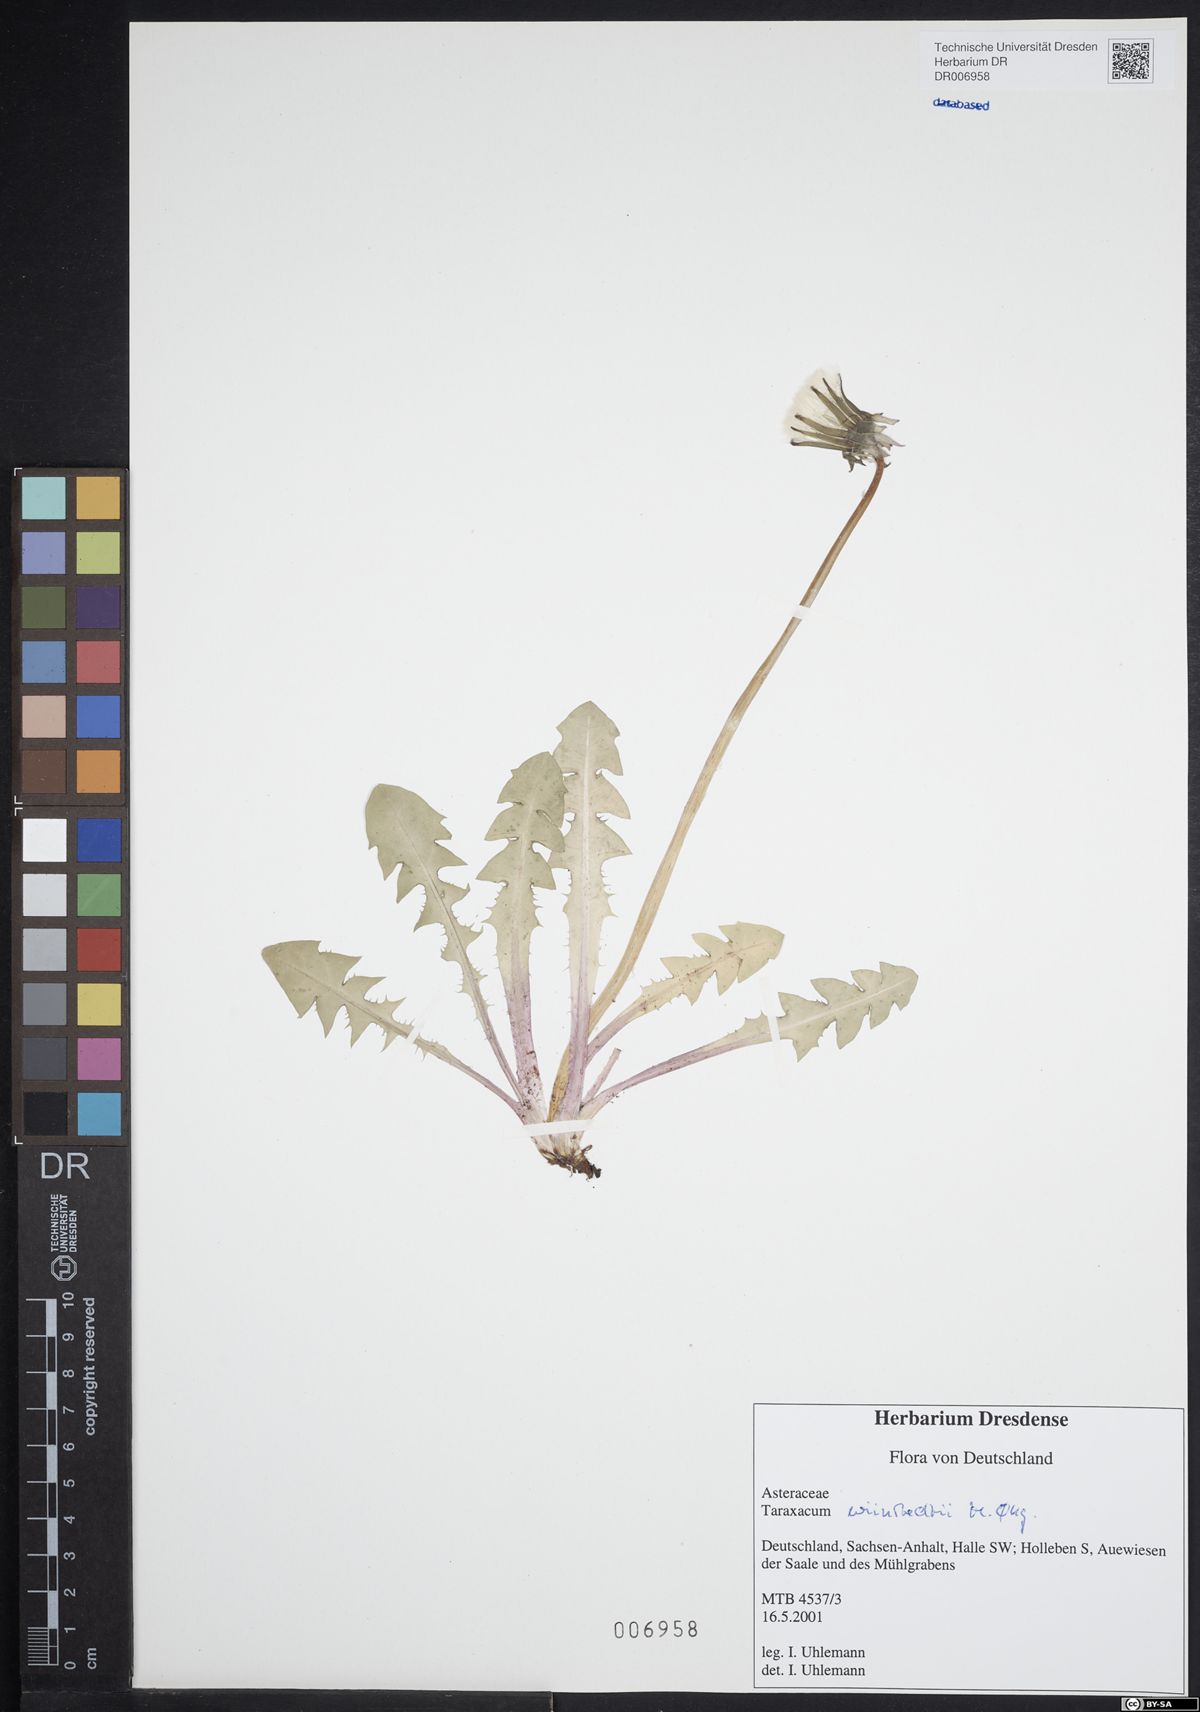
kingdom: Plantae
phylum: Tracheophyta
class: Magnoliopsida
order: Asterales
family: Asteraceae
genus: Taraxacum
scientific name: Taraxacum wiinstedtii
